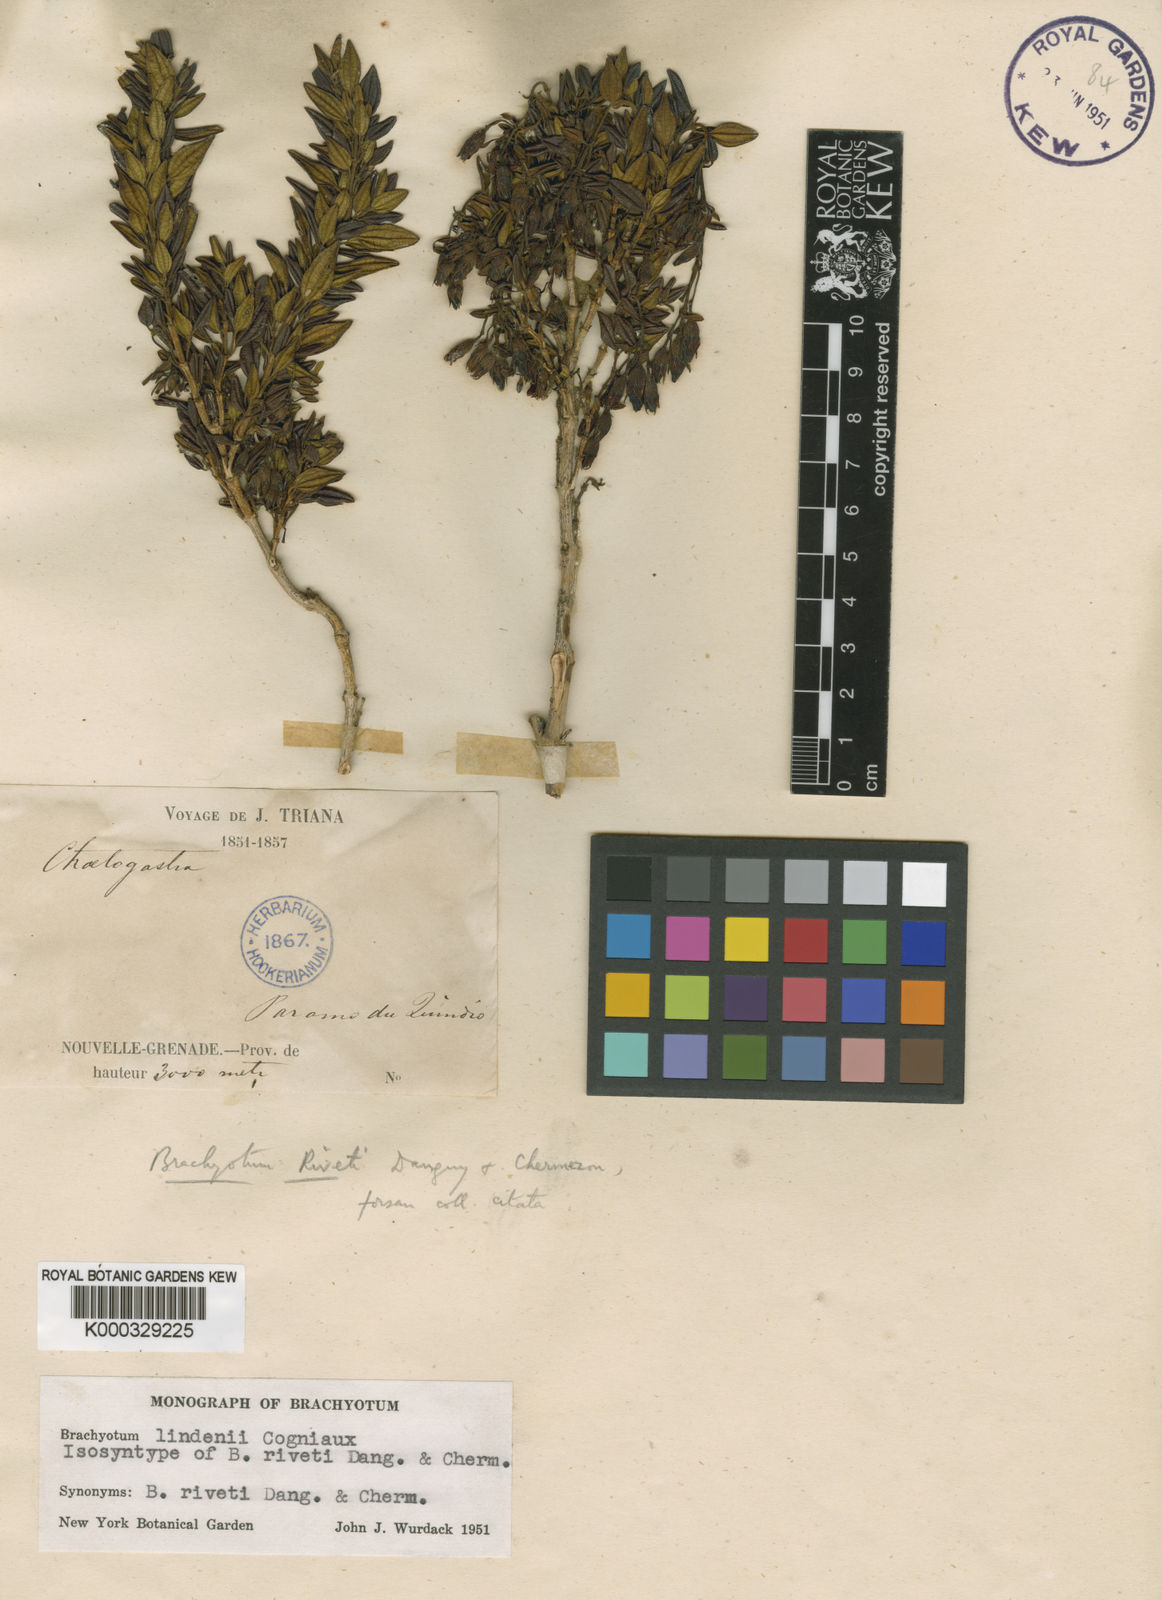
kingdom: Plantae
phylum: Tracheophyta
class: Magnoliopsida
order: Myrtales
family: Melastomataceae
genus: Brachyotum
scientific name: Brachyotum lindenii
